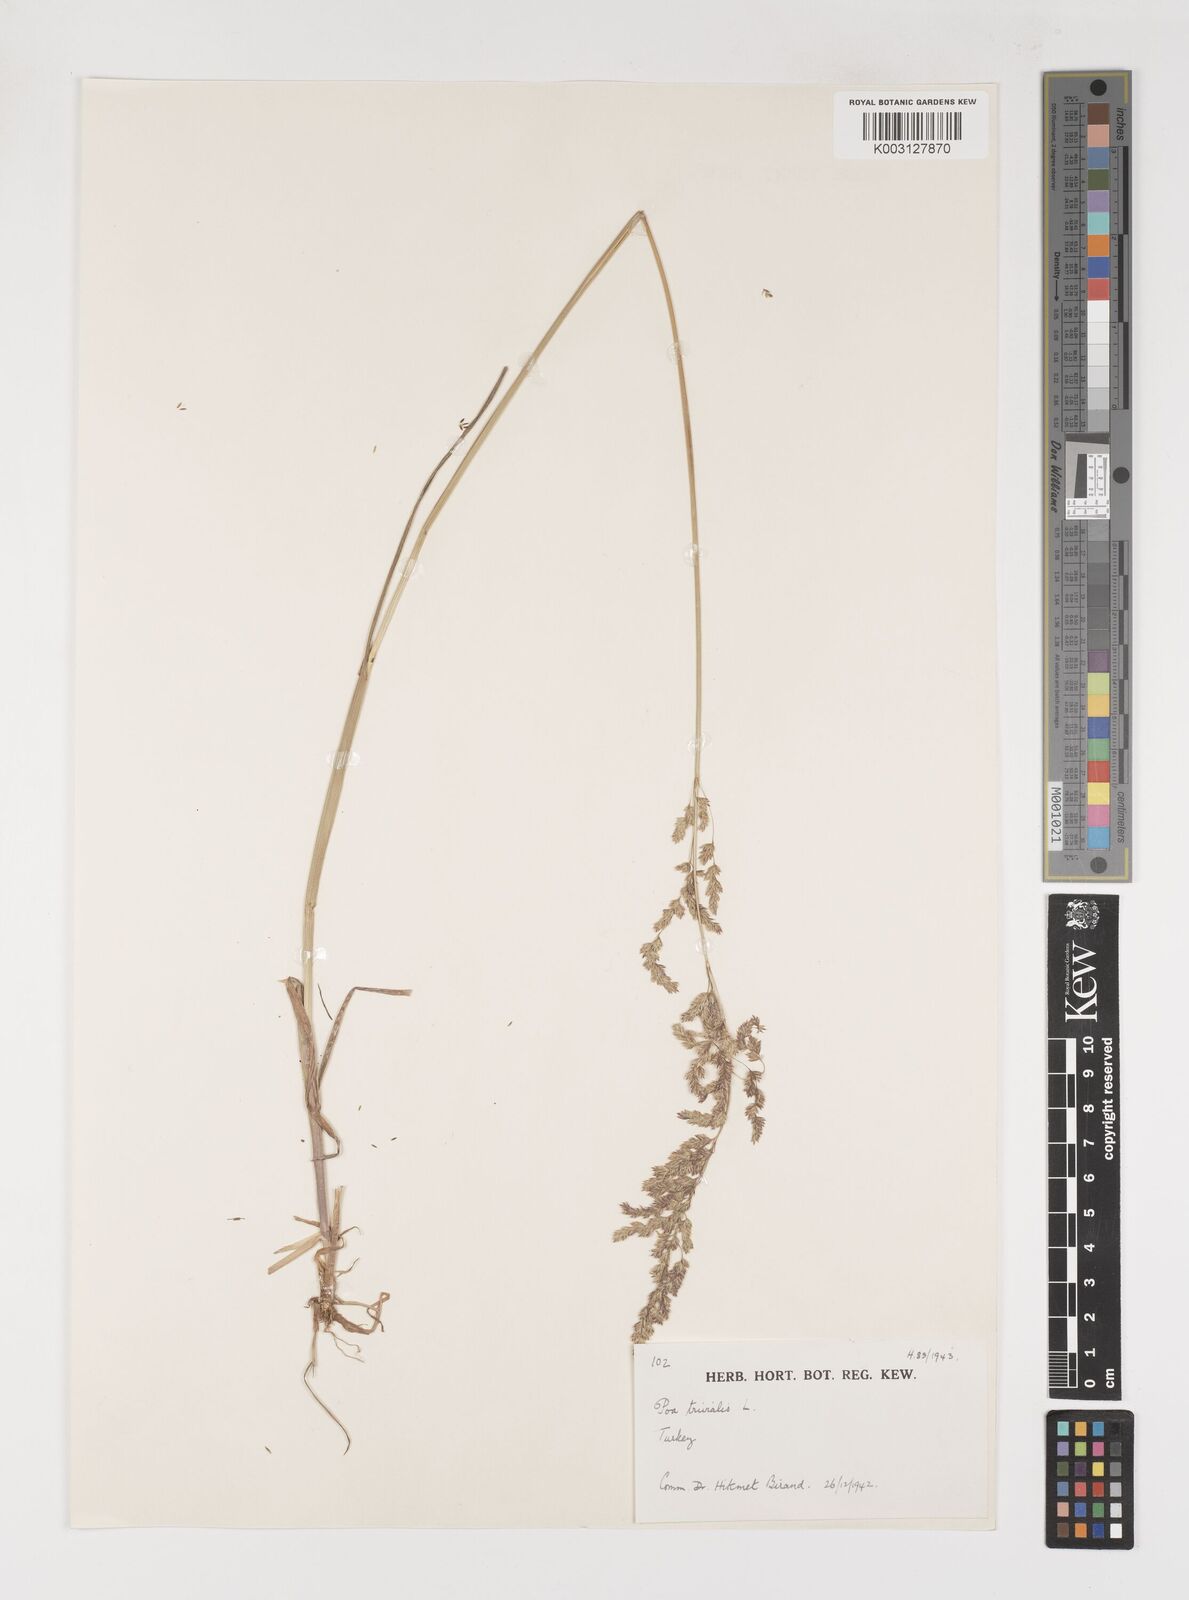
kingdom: Plantae
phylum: Tracheophyta
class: Liliopsida
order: Poales
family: Poaceae
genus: Poa
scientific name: Poa trivialis
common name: Rough bluegrass
